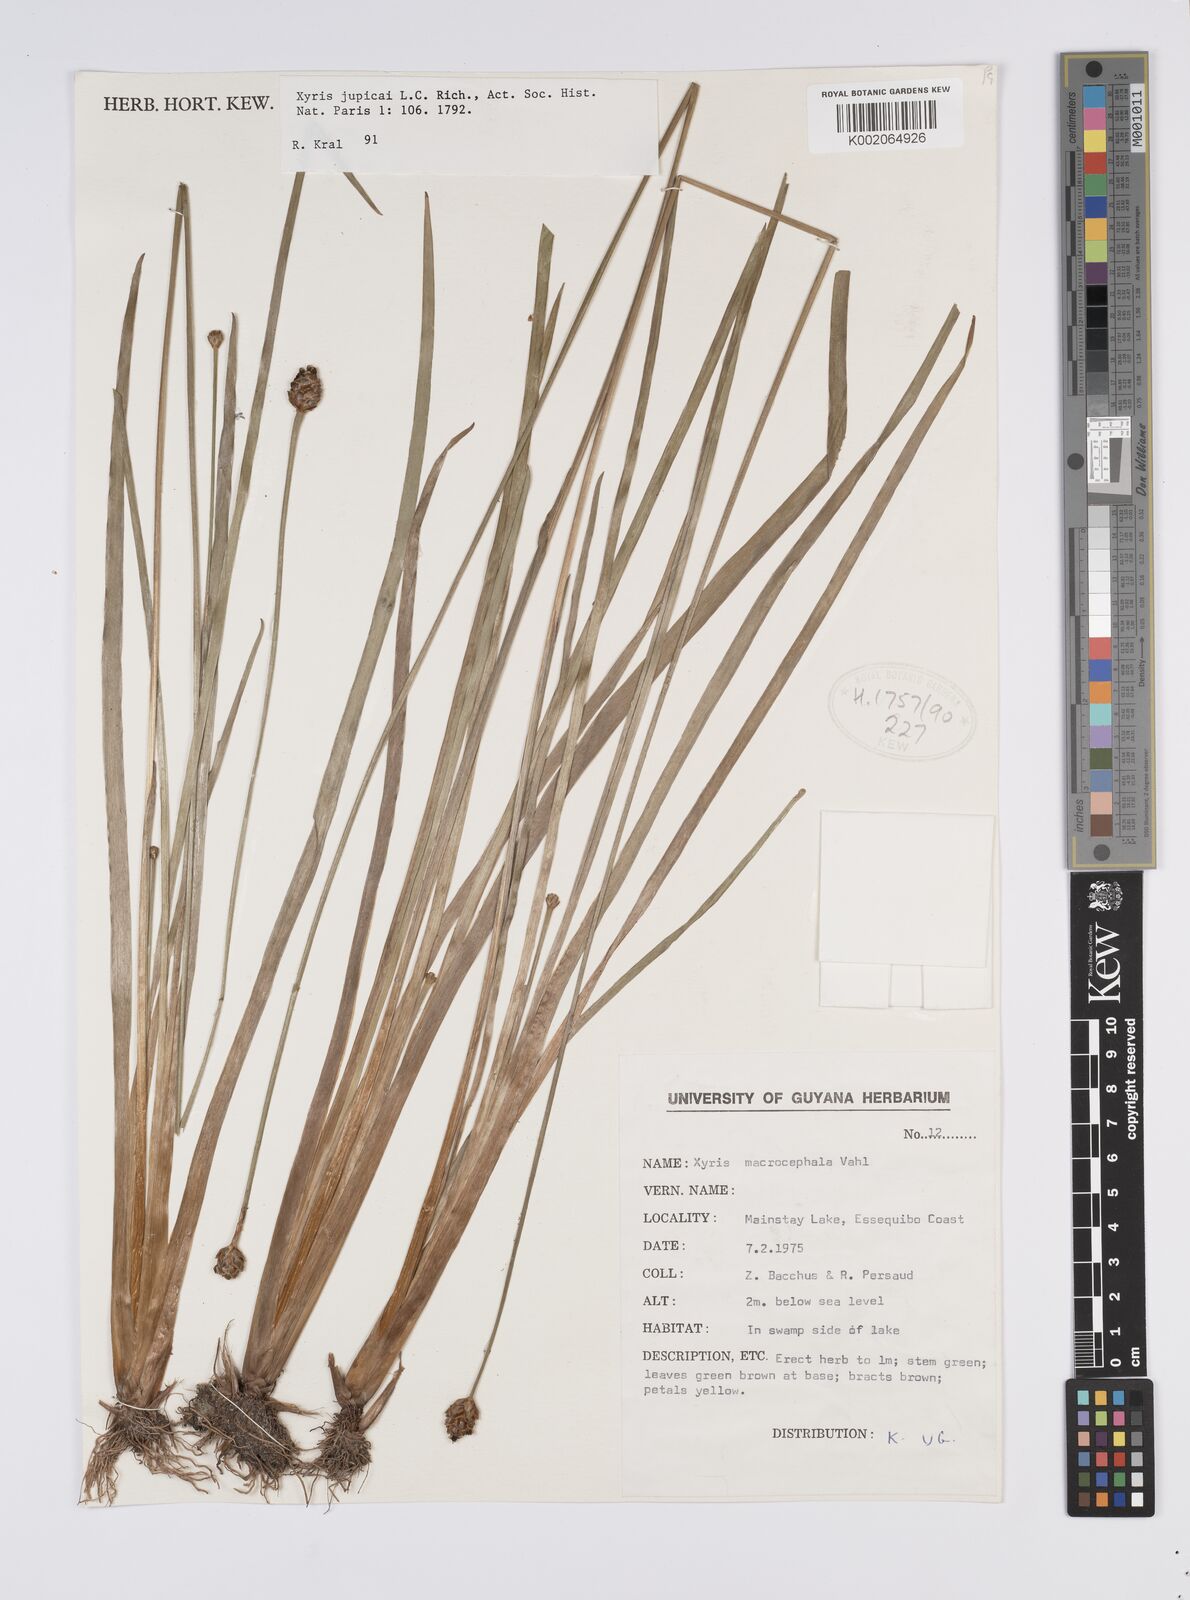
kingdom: Plantae
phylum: Tracheophyta
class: Liliopsida
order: Poales
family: Xyridaceae
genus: Xyris
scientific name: Xyris jupicai
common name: Richard's yelloweyed grass
